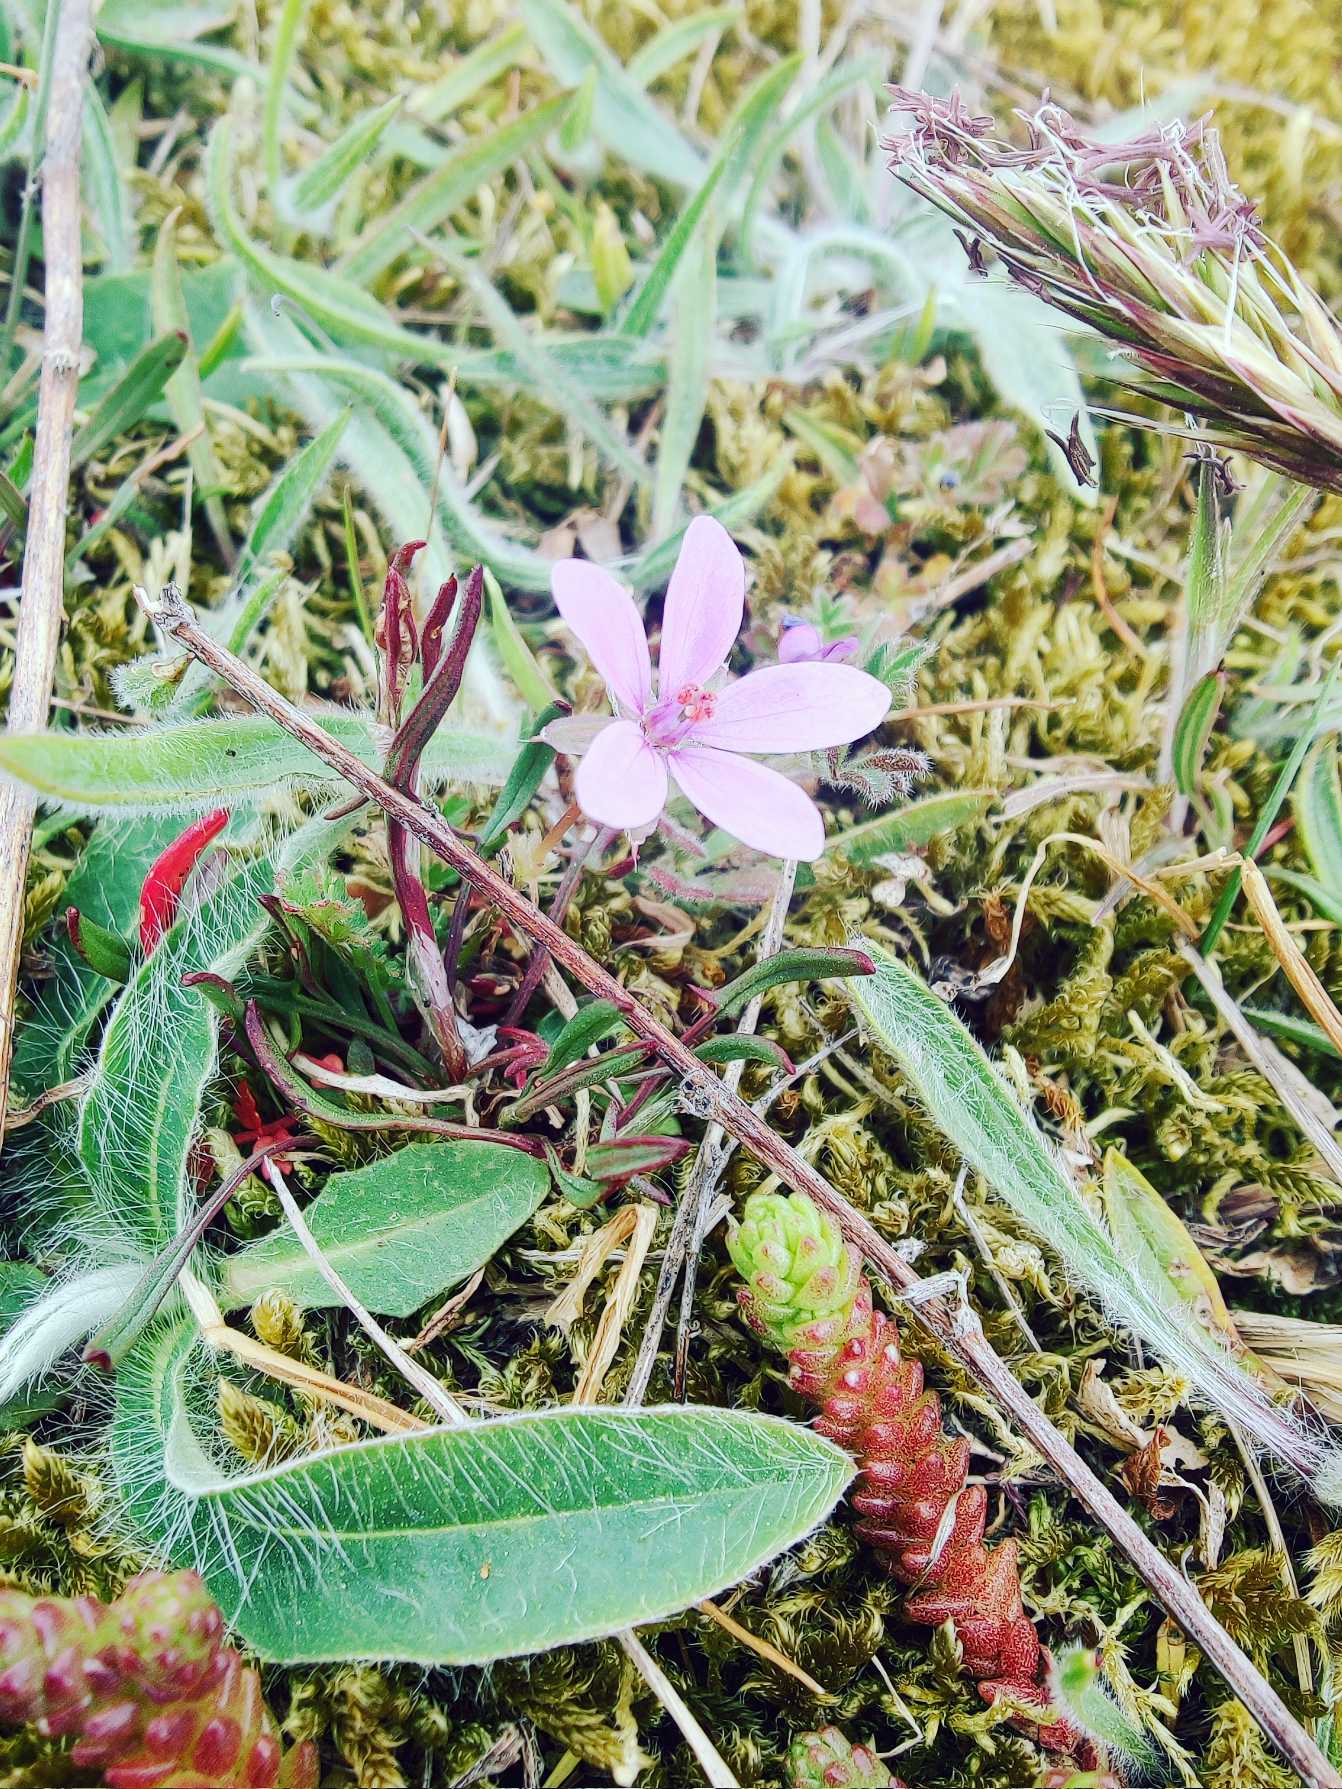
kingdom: Plantae
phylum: Tracheophyta
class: Magnoliopsida
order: Geraniales
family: Geraniaceae
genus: Erodium
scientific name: Erodium cicutarium
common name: Hejrenæb
